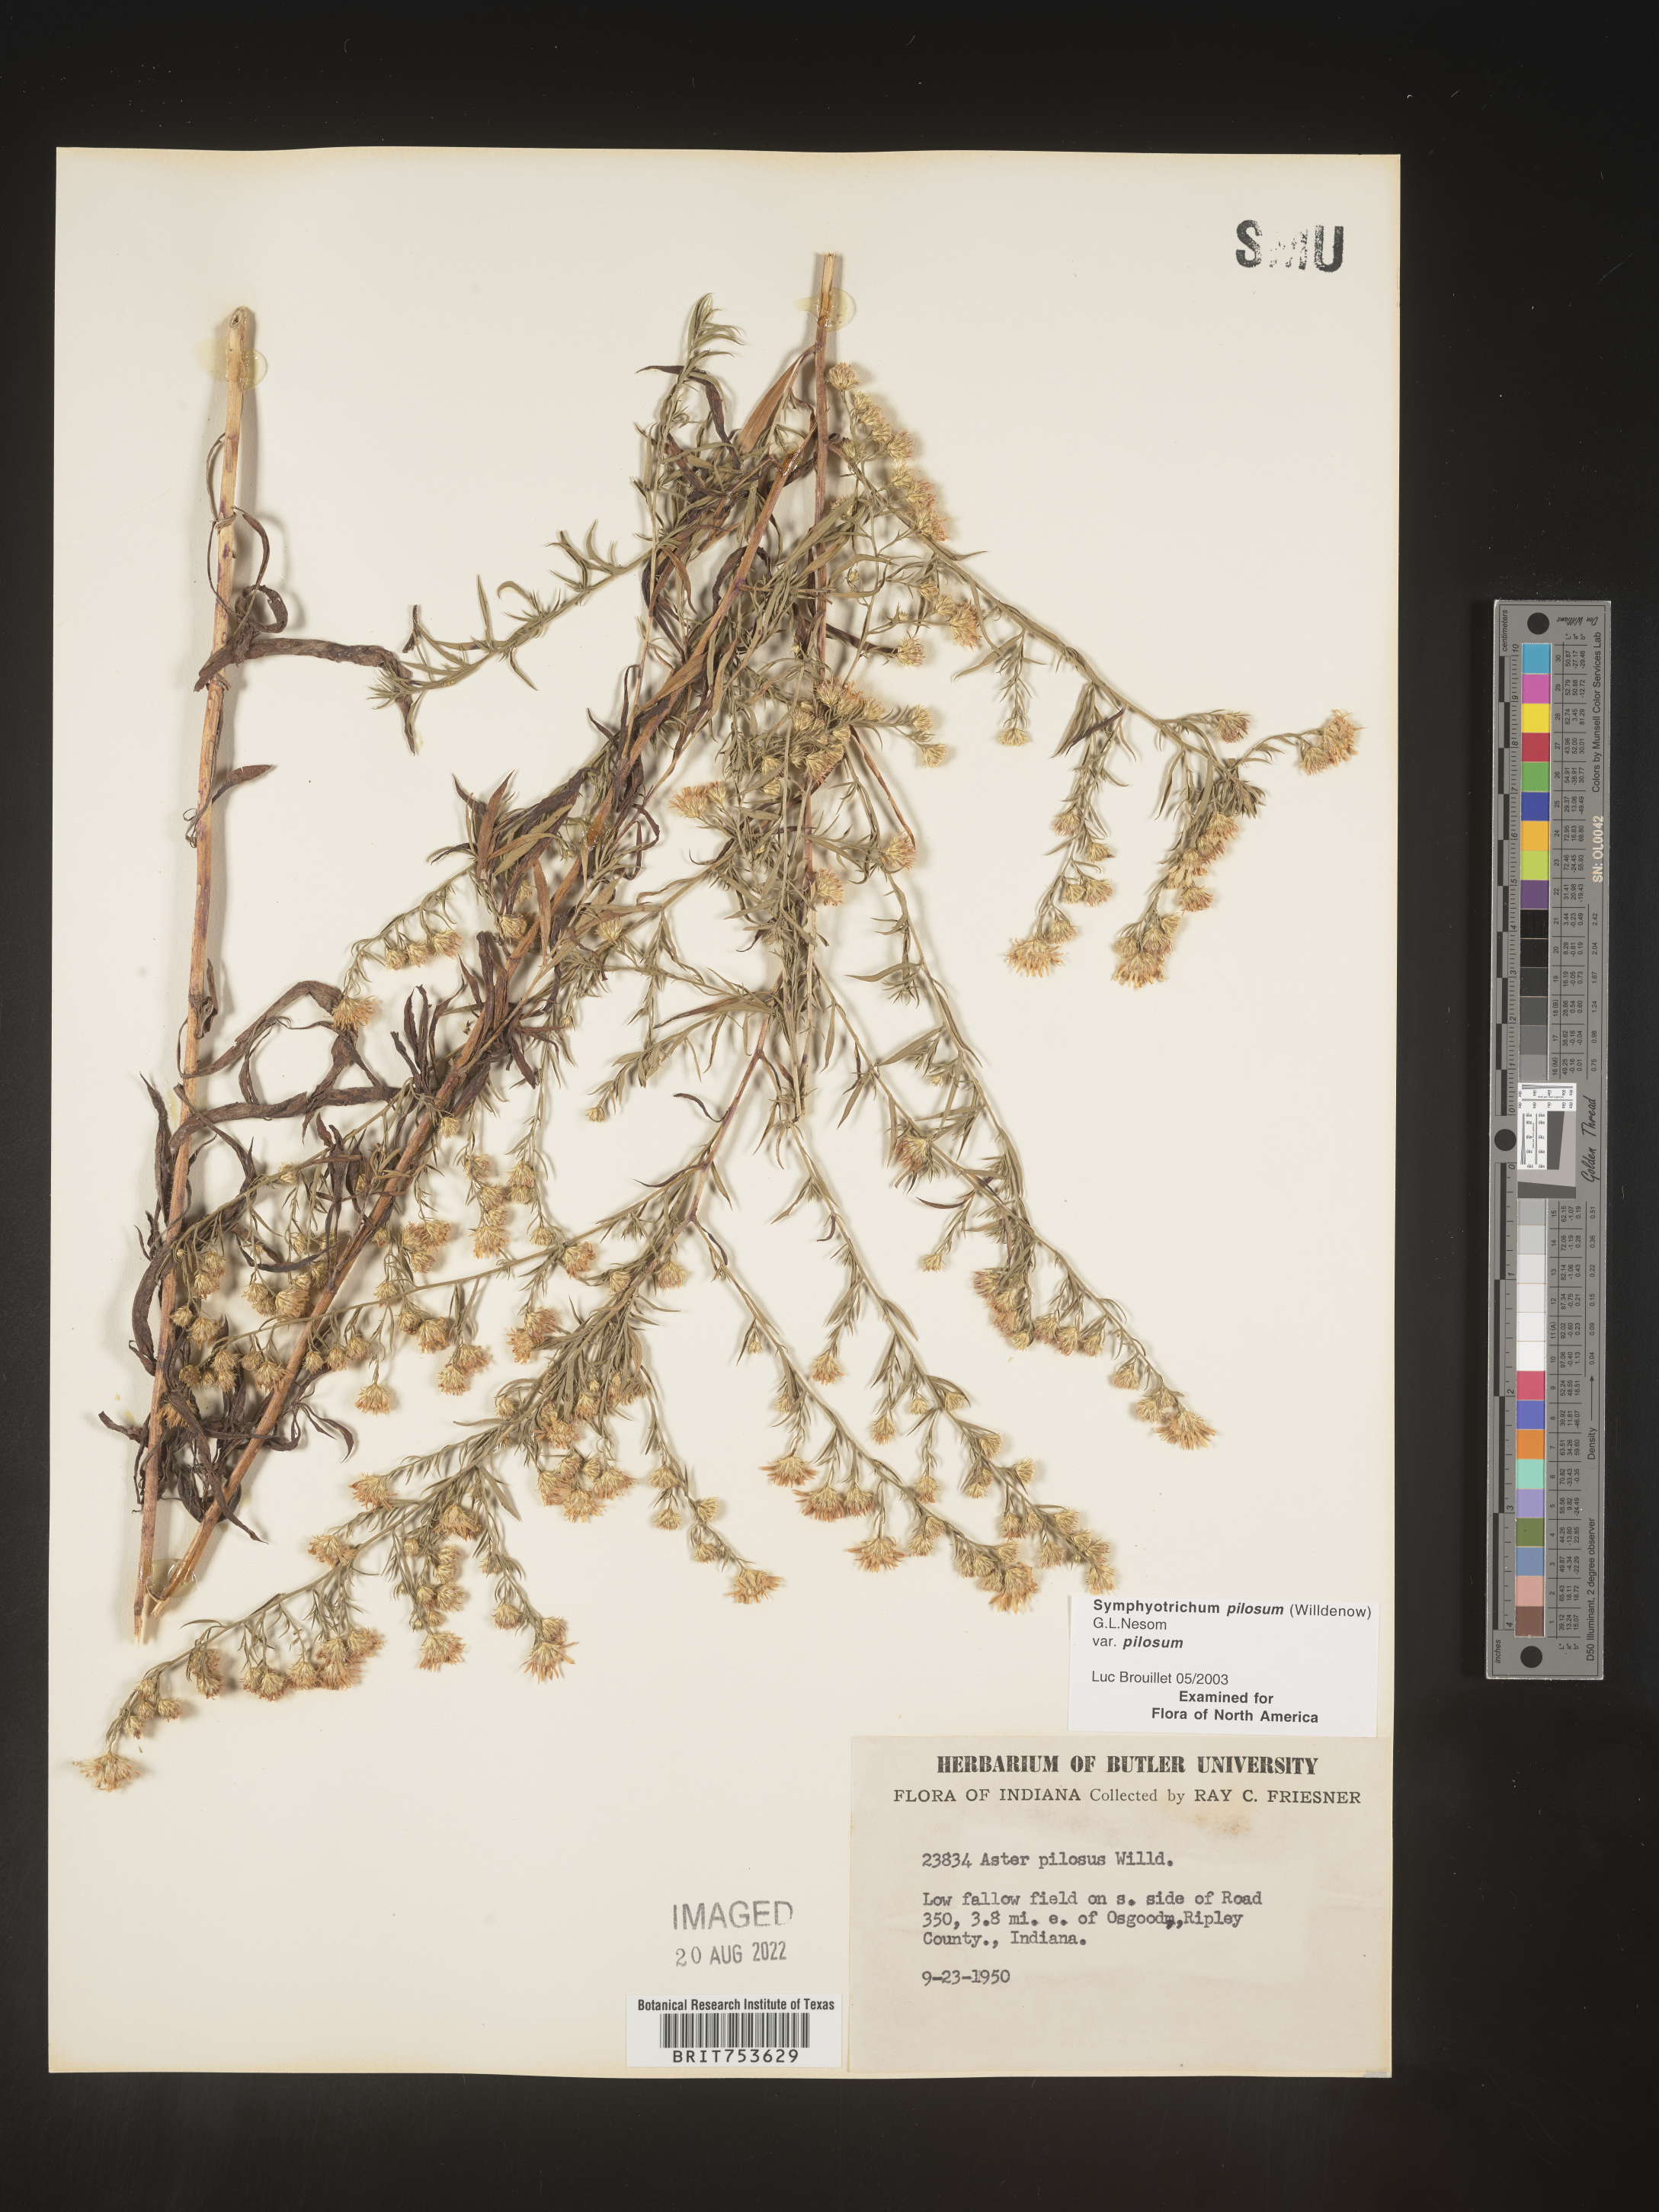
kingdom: Plantae
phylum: Tracheophyta
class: Magnoliopsida
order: Asterales
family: Asteraceae
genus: Symphyotrichum
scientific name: Symphyotrichum pilosum
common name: Awl aster
